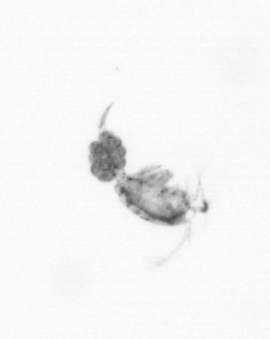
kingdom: Animalia
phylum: Arthropoda
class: Copepoda
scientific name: Copepoda
